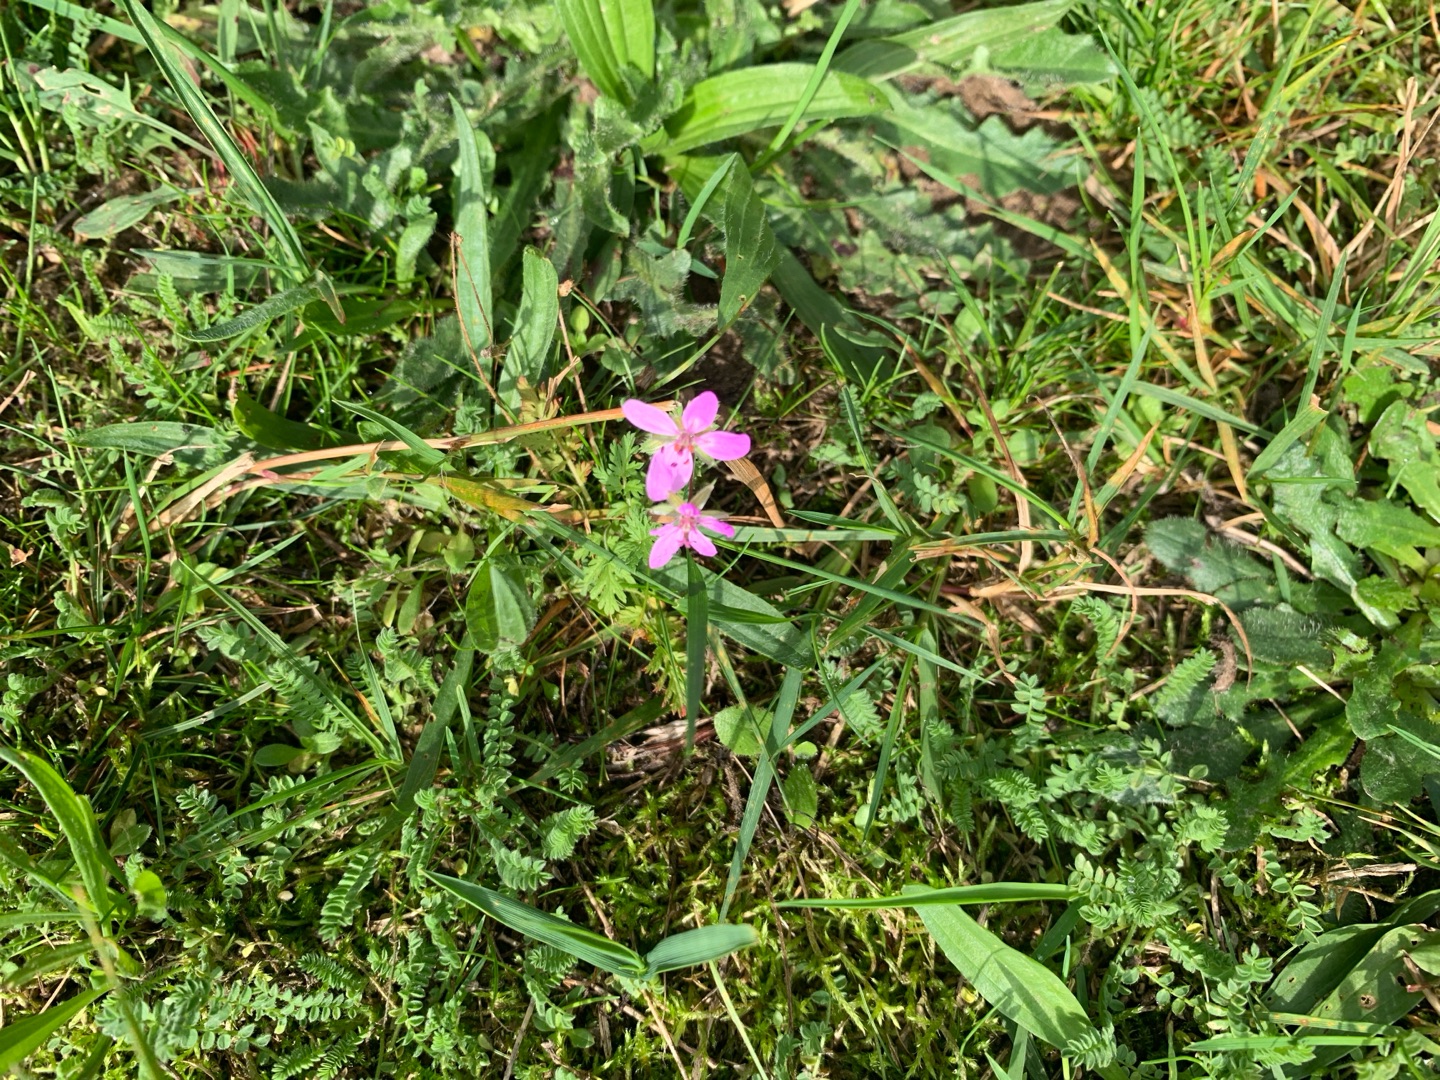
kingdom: Plantae
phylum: Tracheophyta
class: Magnoliopsida
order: Geraniales
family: Geraniaceae
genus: Erodium
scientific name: Erodium cicutarium
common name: Hejrenæb
